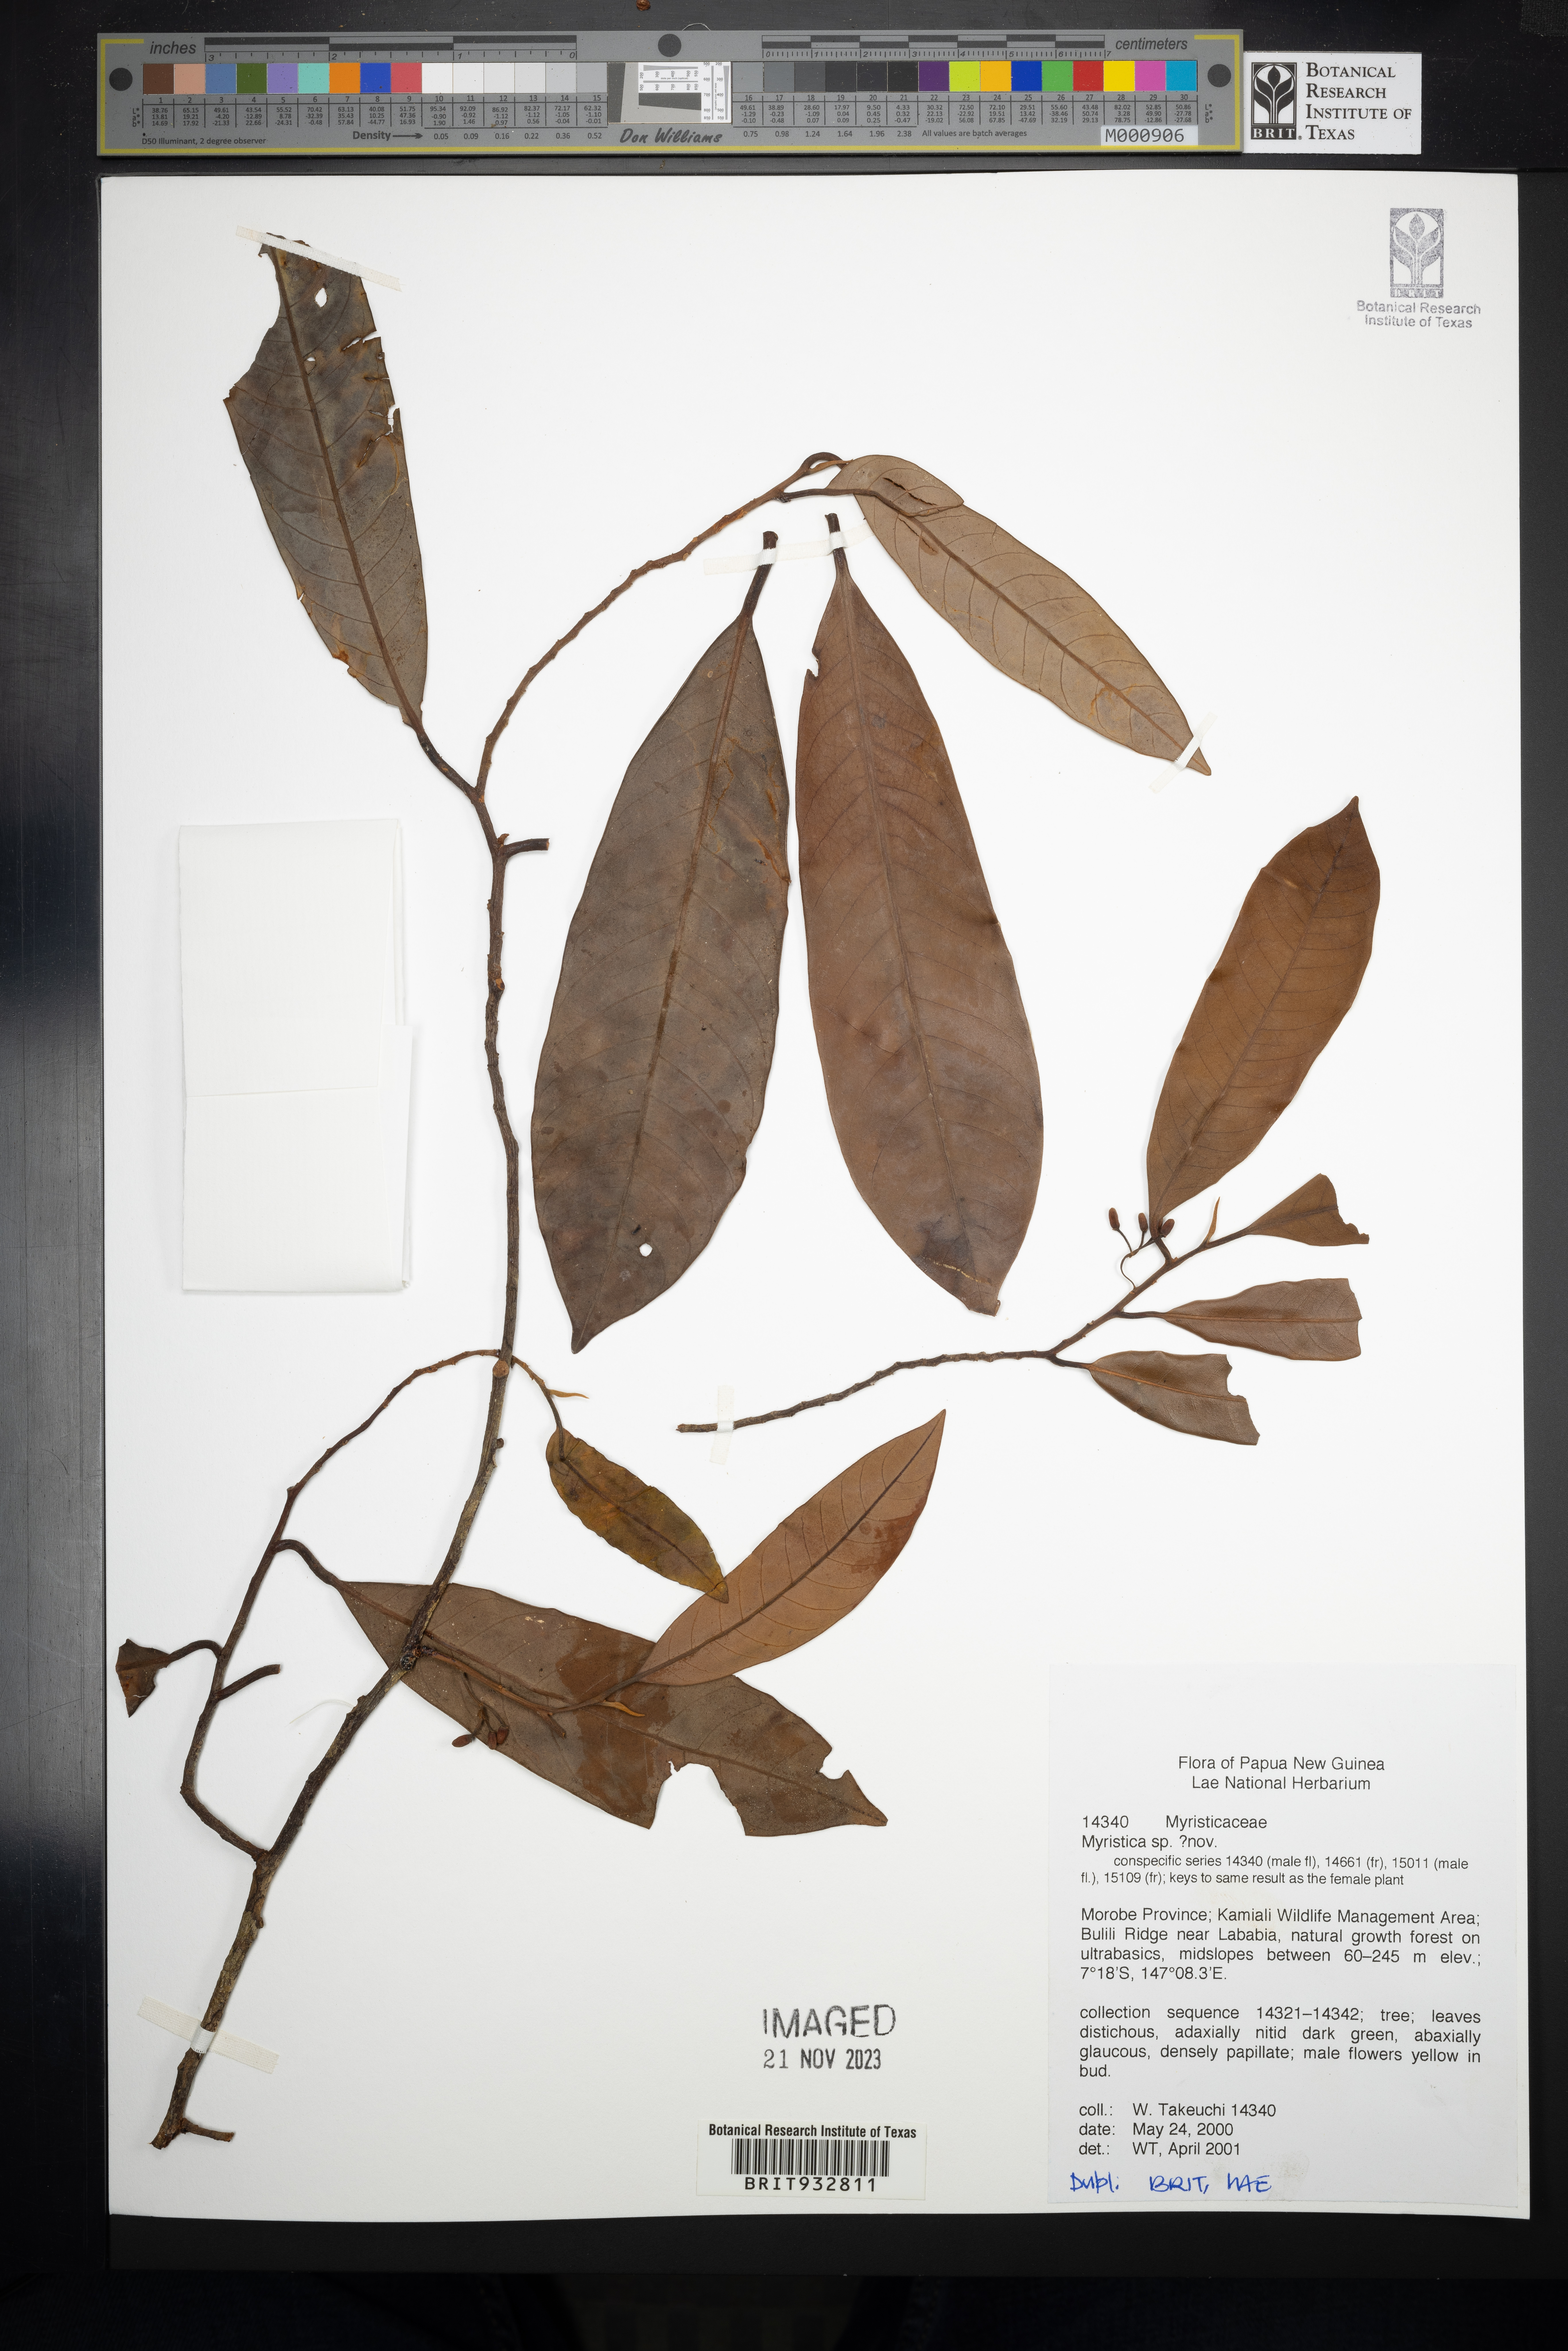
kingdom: Plantae
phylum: Tracheophyta
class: Magnoliopsida
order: Magnoliales
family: Myristicaceae
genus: Myristica
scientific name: Myristica
